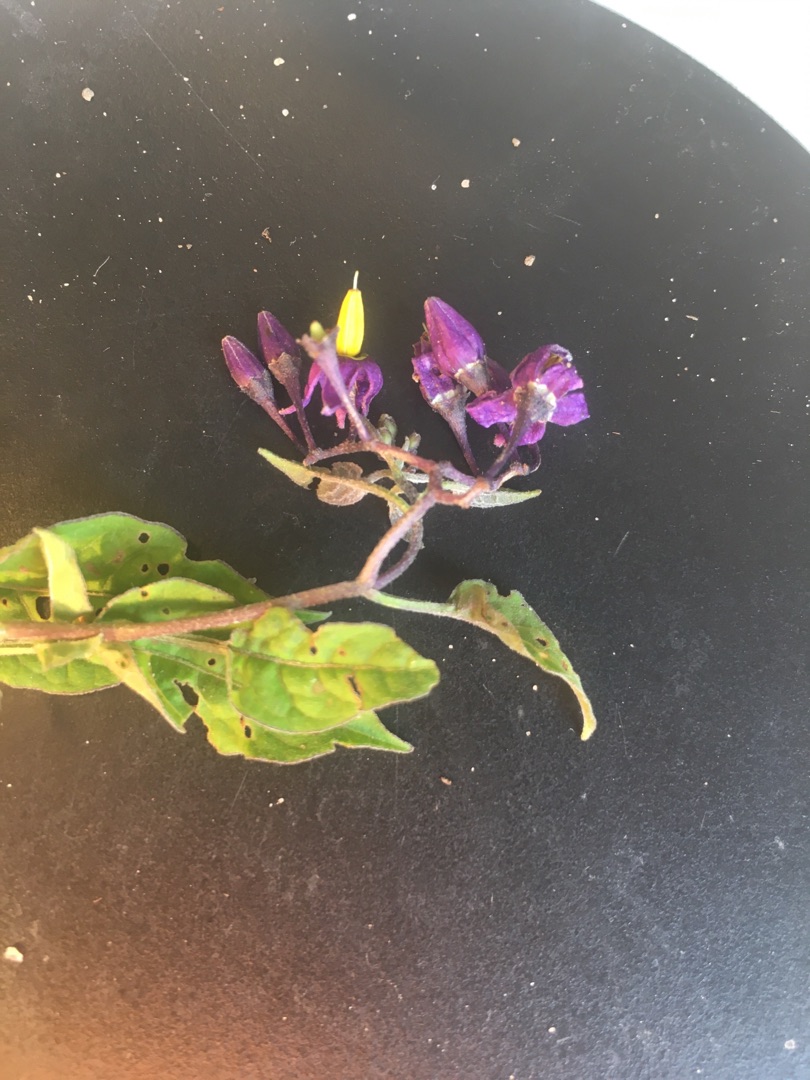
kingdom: Plantae
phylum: Tracheophyta
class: Magnoliopsida
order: Solanales
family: Solanaceae
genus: Solanum
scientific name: Solanum dulcamara
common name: Bittersød natskygge
